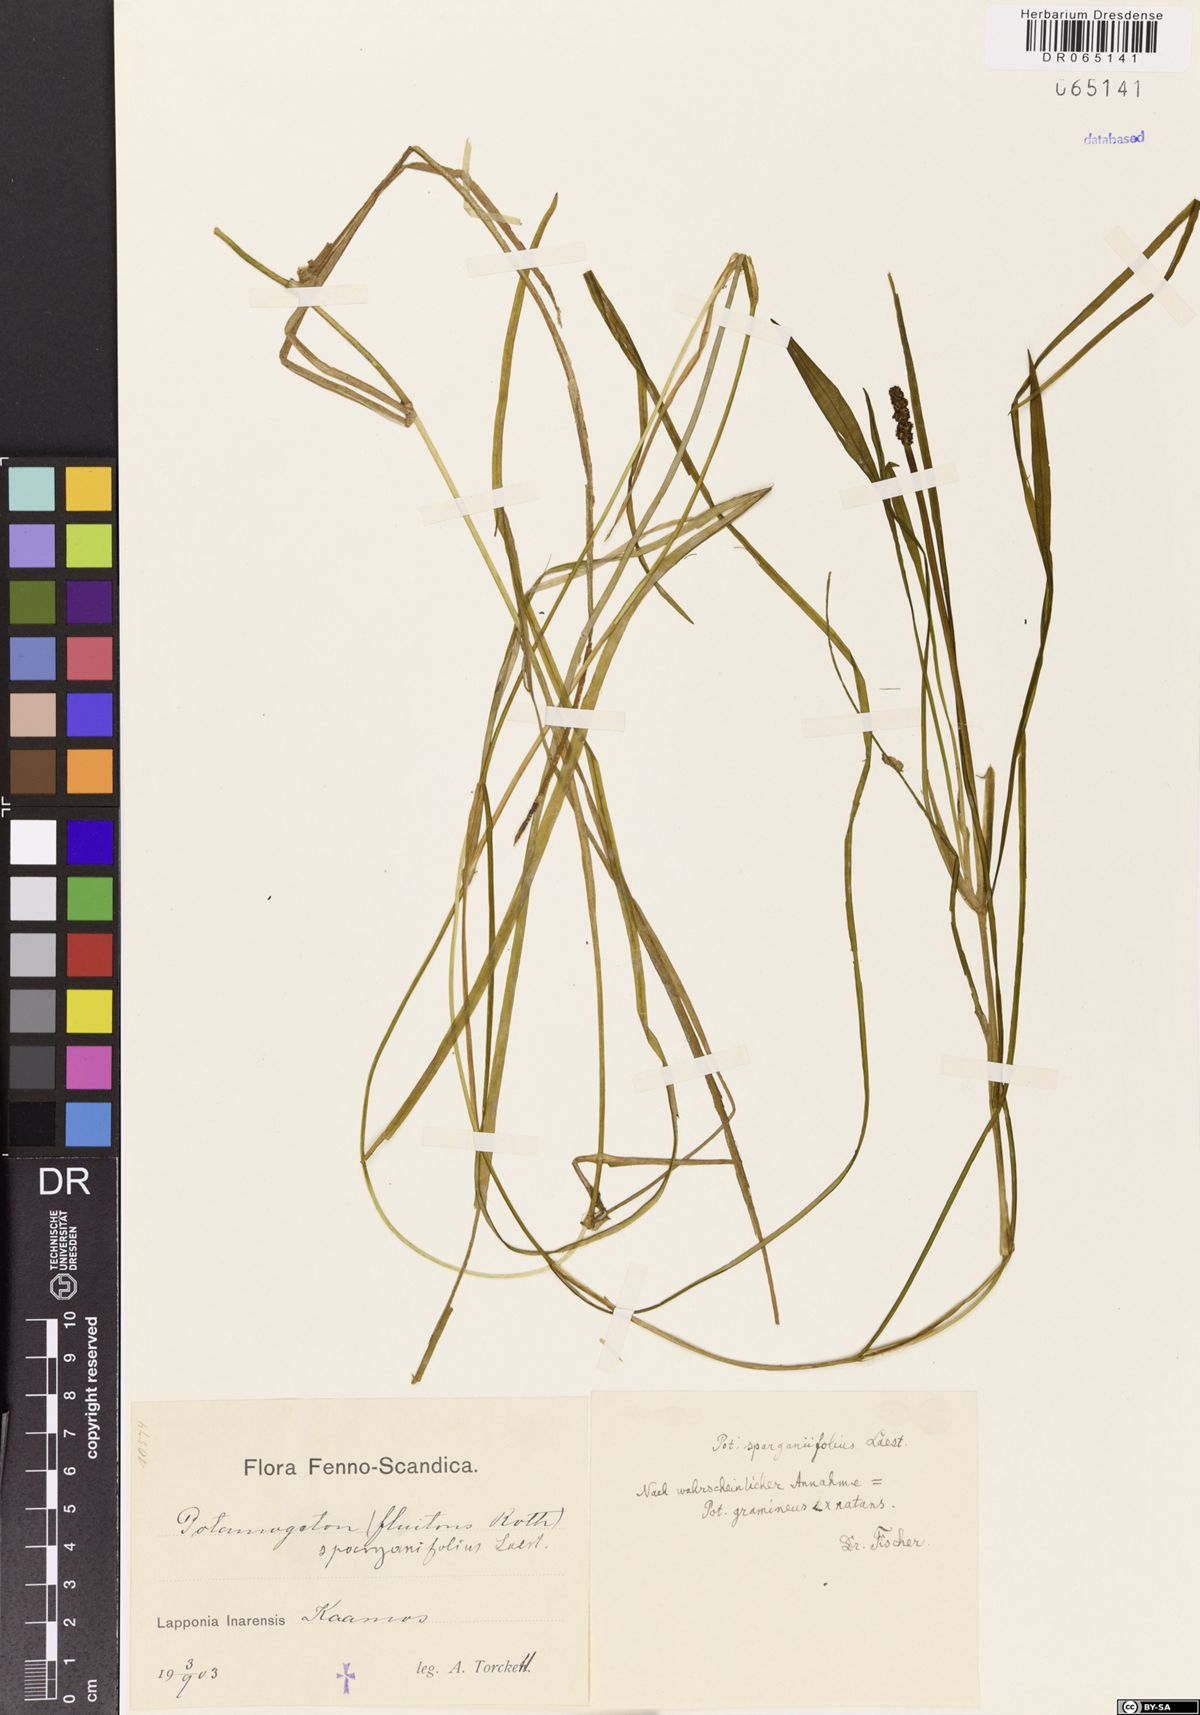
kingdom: Plantae
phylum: Tracheophyta
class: Liliopsida
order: Alismatales
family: Potamogetonaceae
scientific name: Potamogetonaceae
